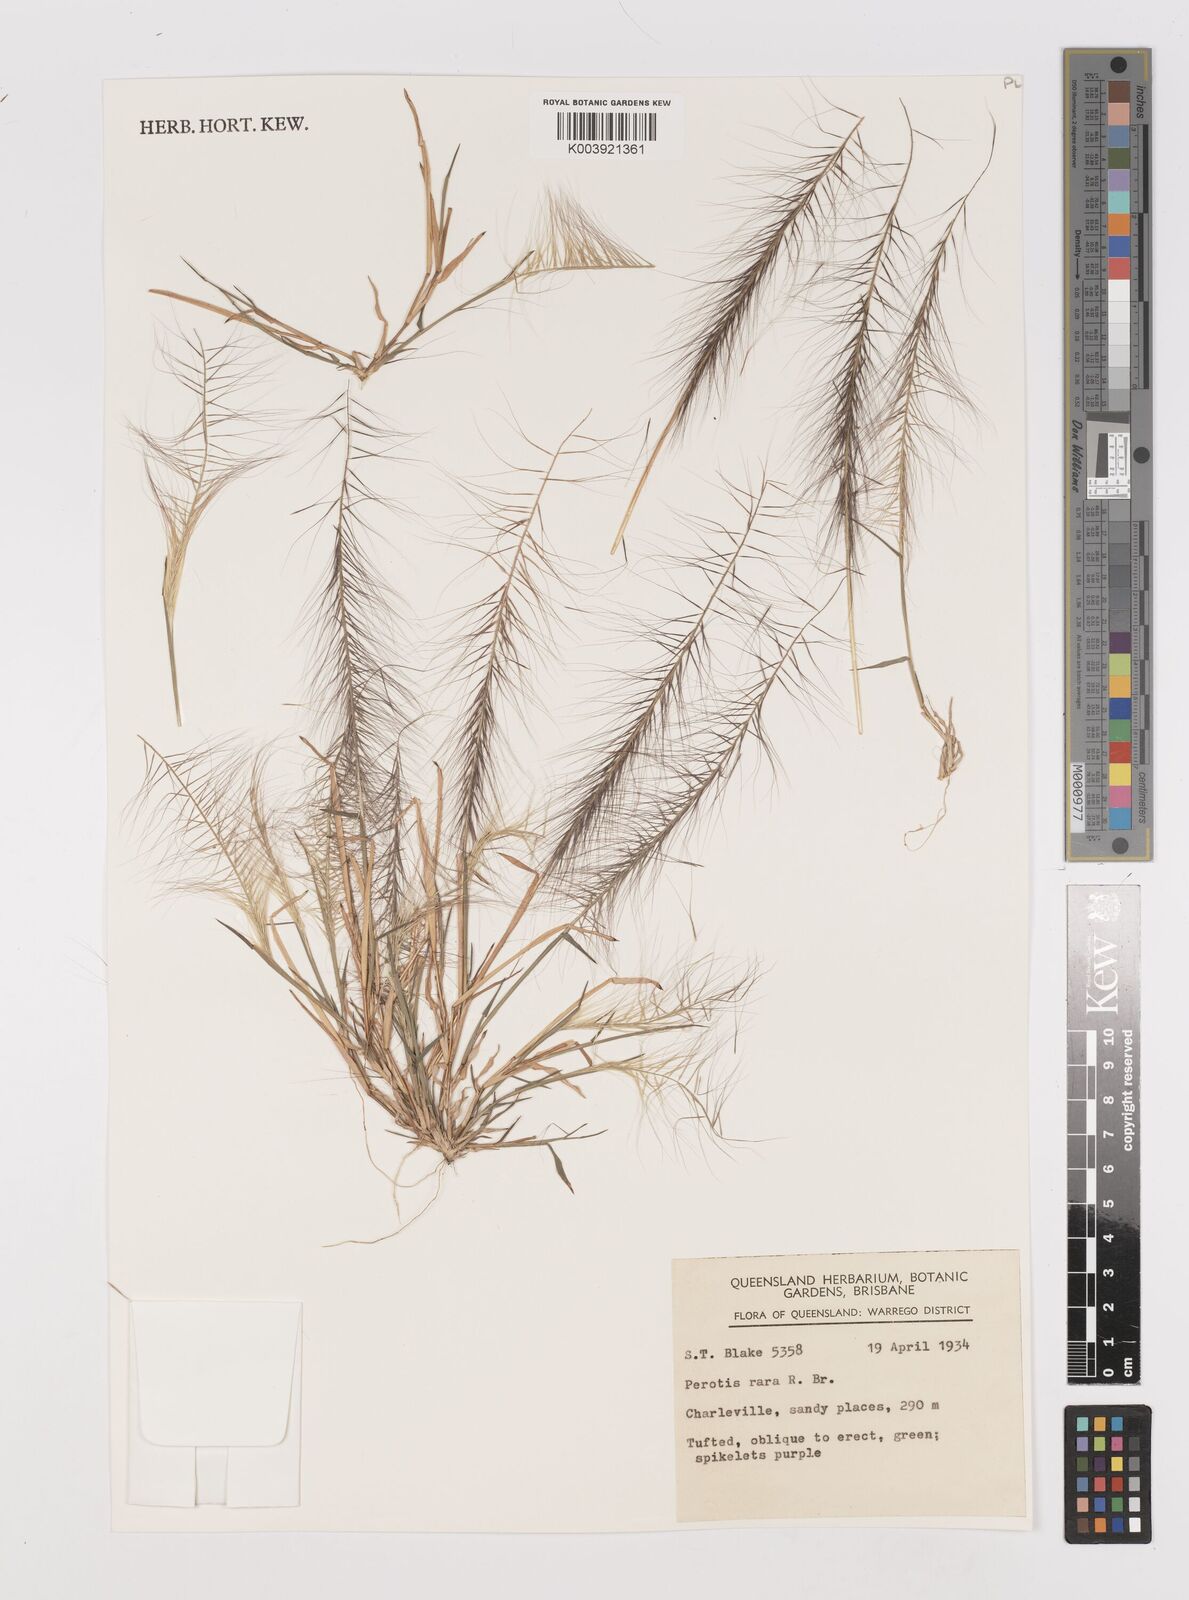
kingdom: Plantae
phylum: Tracheophyta
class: Liliopsida
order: Poales
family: Poaceae
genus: Perotis
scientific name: Perotis rara
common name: Comet grass
